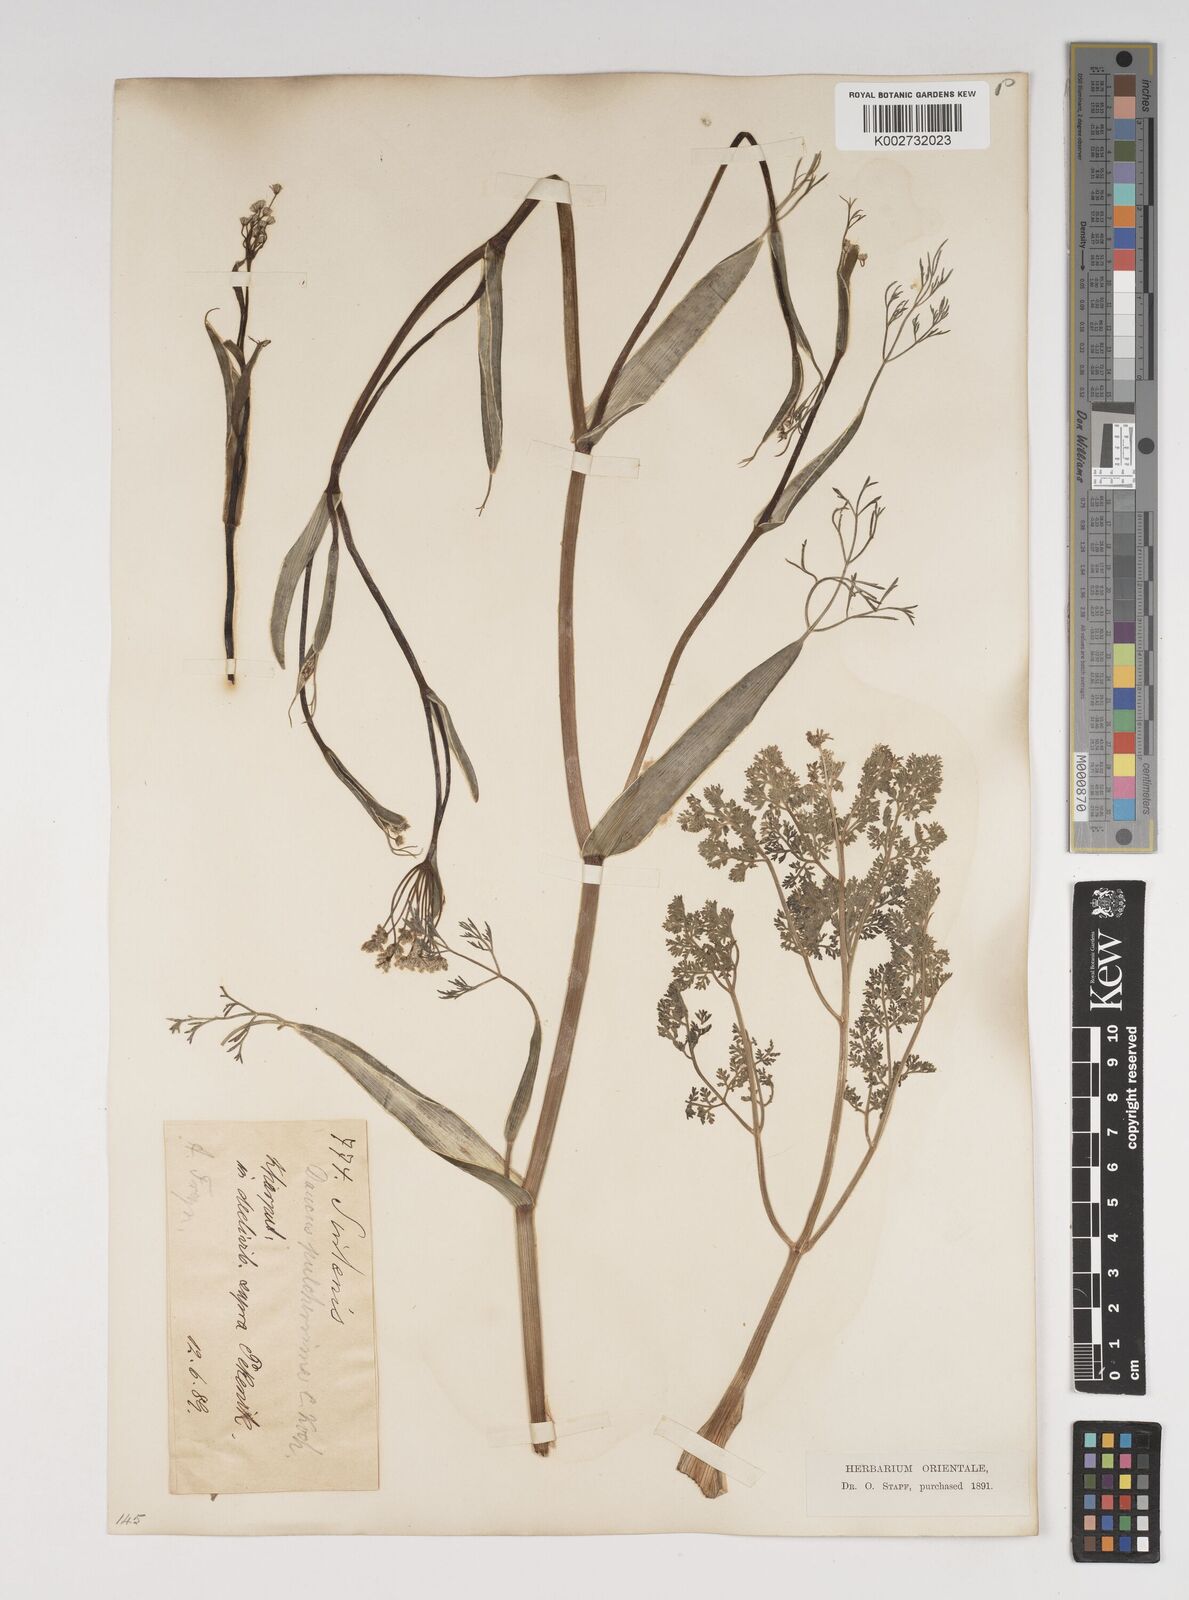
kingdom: Plantae
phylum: Tracheophyta
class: Magnoliopsida
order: Apiales
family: Apiaceae
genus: Astrodaucus
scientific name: Astrodaucus
